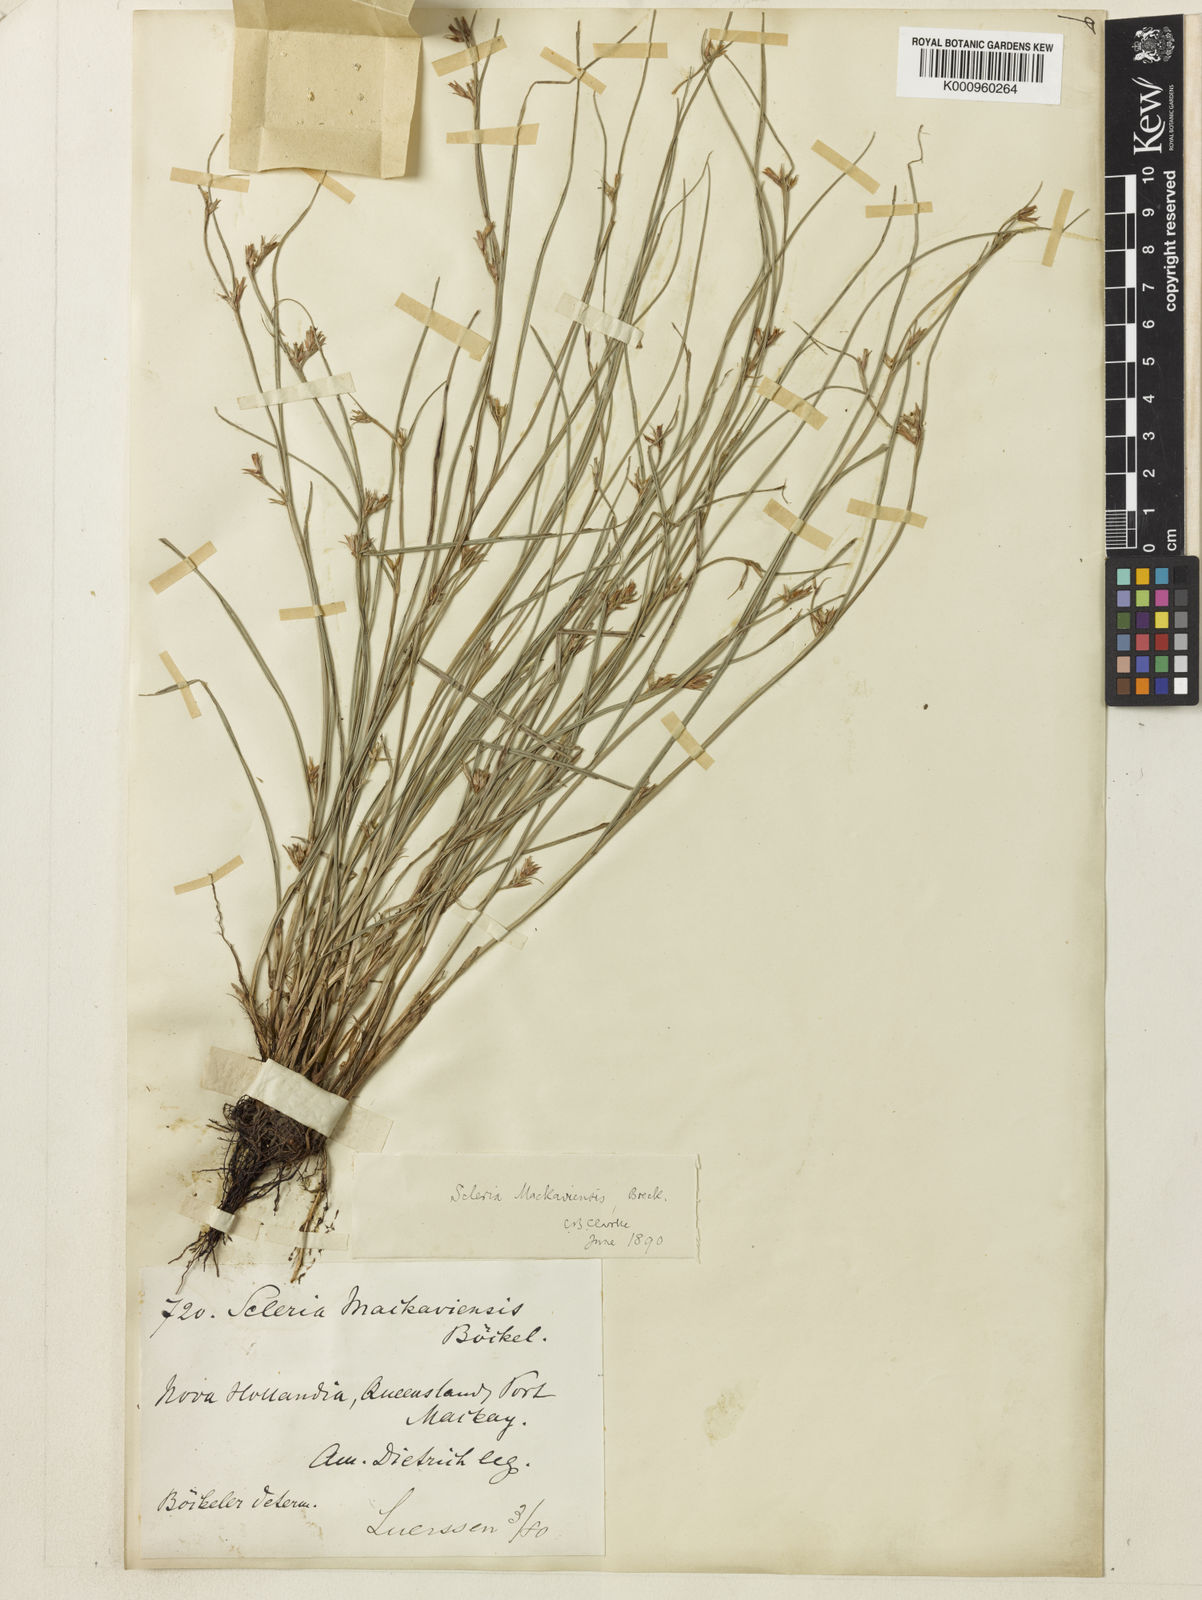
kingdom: Plantae
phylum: Tracheophyta
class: Liliopsida
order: Poales
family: Cyperaceae
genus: Scleria
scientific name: Scleria mackaviensis
